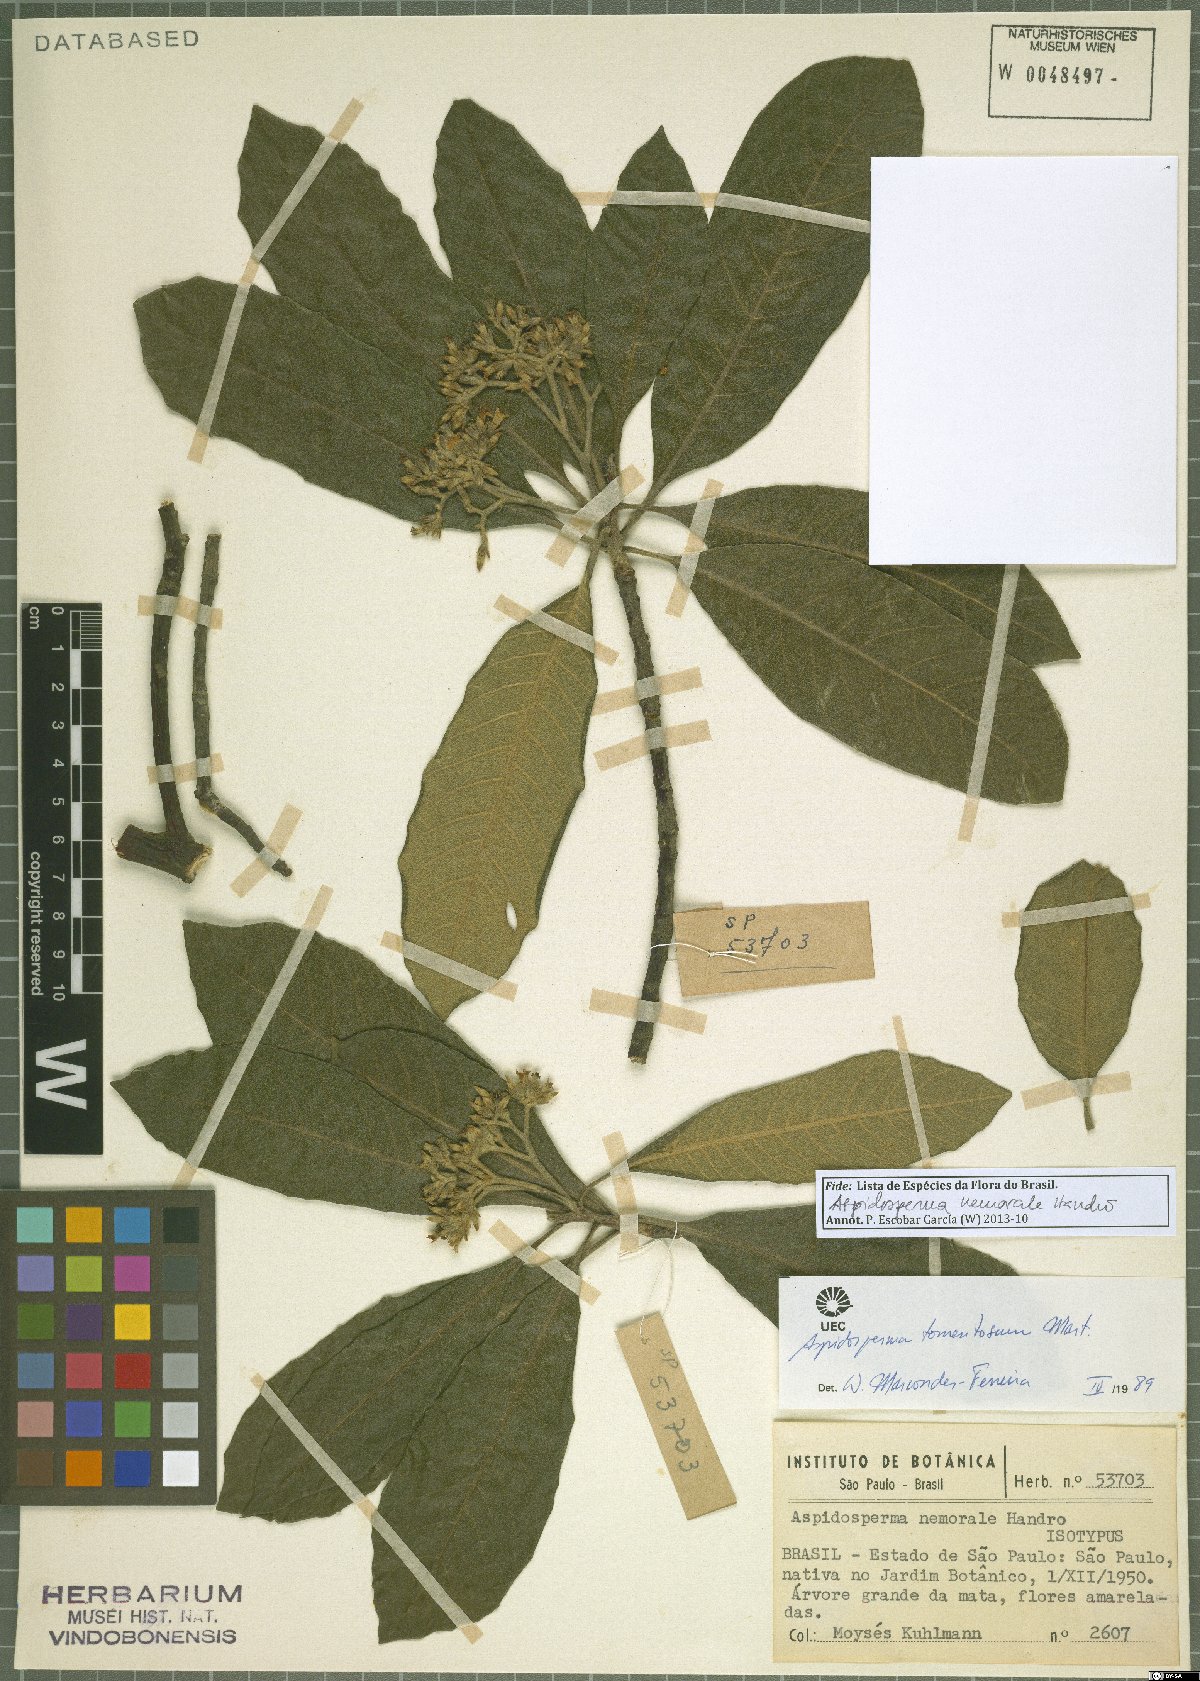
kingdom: Plantae
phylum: Tracheophyta
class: Magnoliopsida
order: Gentianales
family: Apocynaceae
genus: Aspidosperma
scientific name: Aspidosperma nemorale
